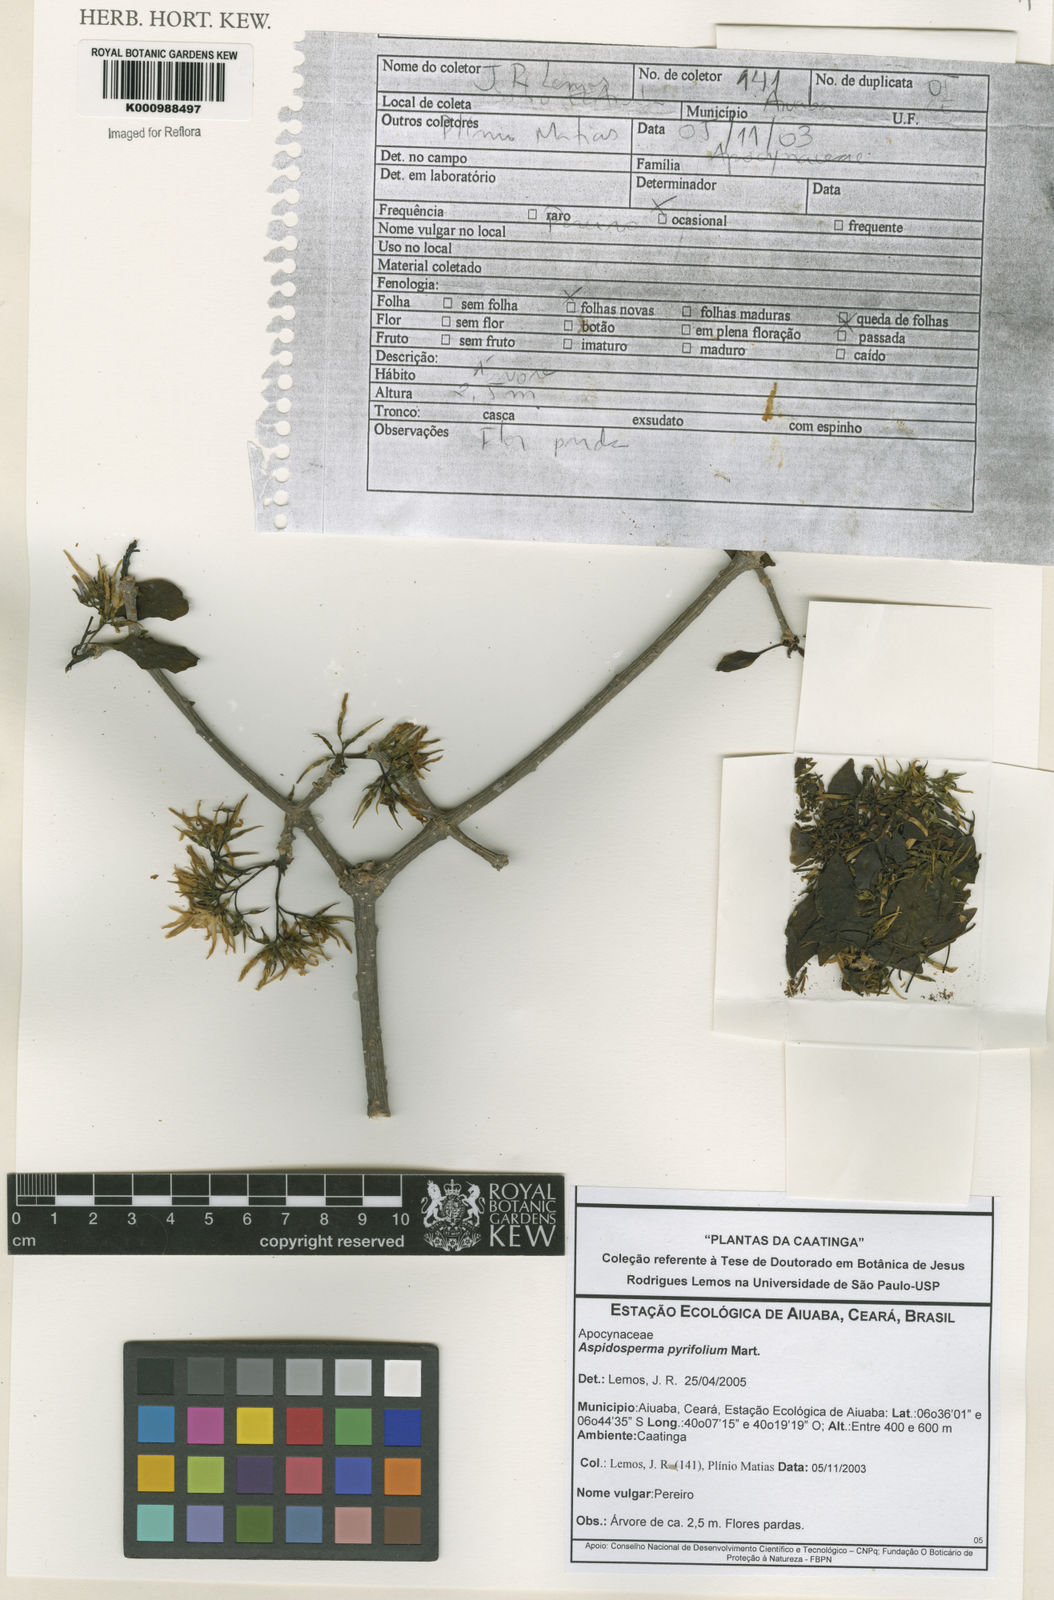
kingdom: Plantae
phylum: Tracheophyta
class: Magnoliopsida
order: Gentianales
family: Apocynaceae
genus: Aspidosperma
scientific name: Aspidosperma pyrifolium
